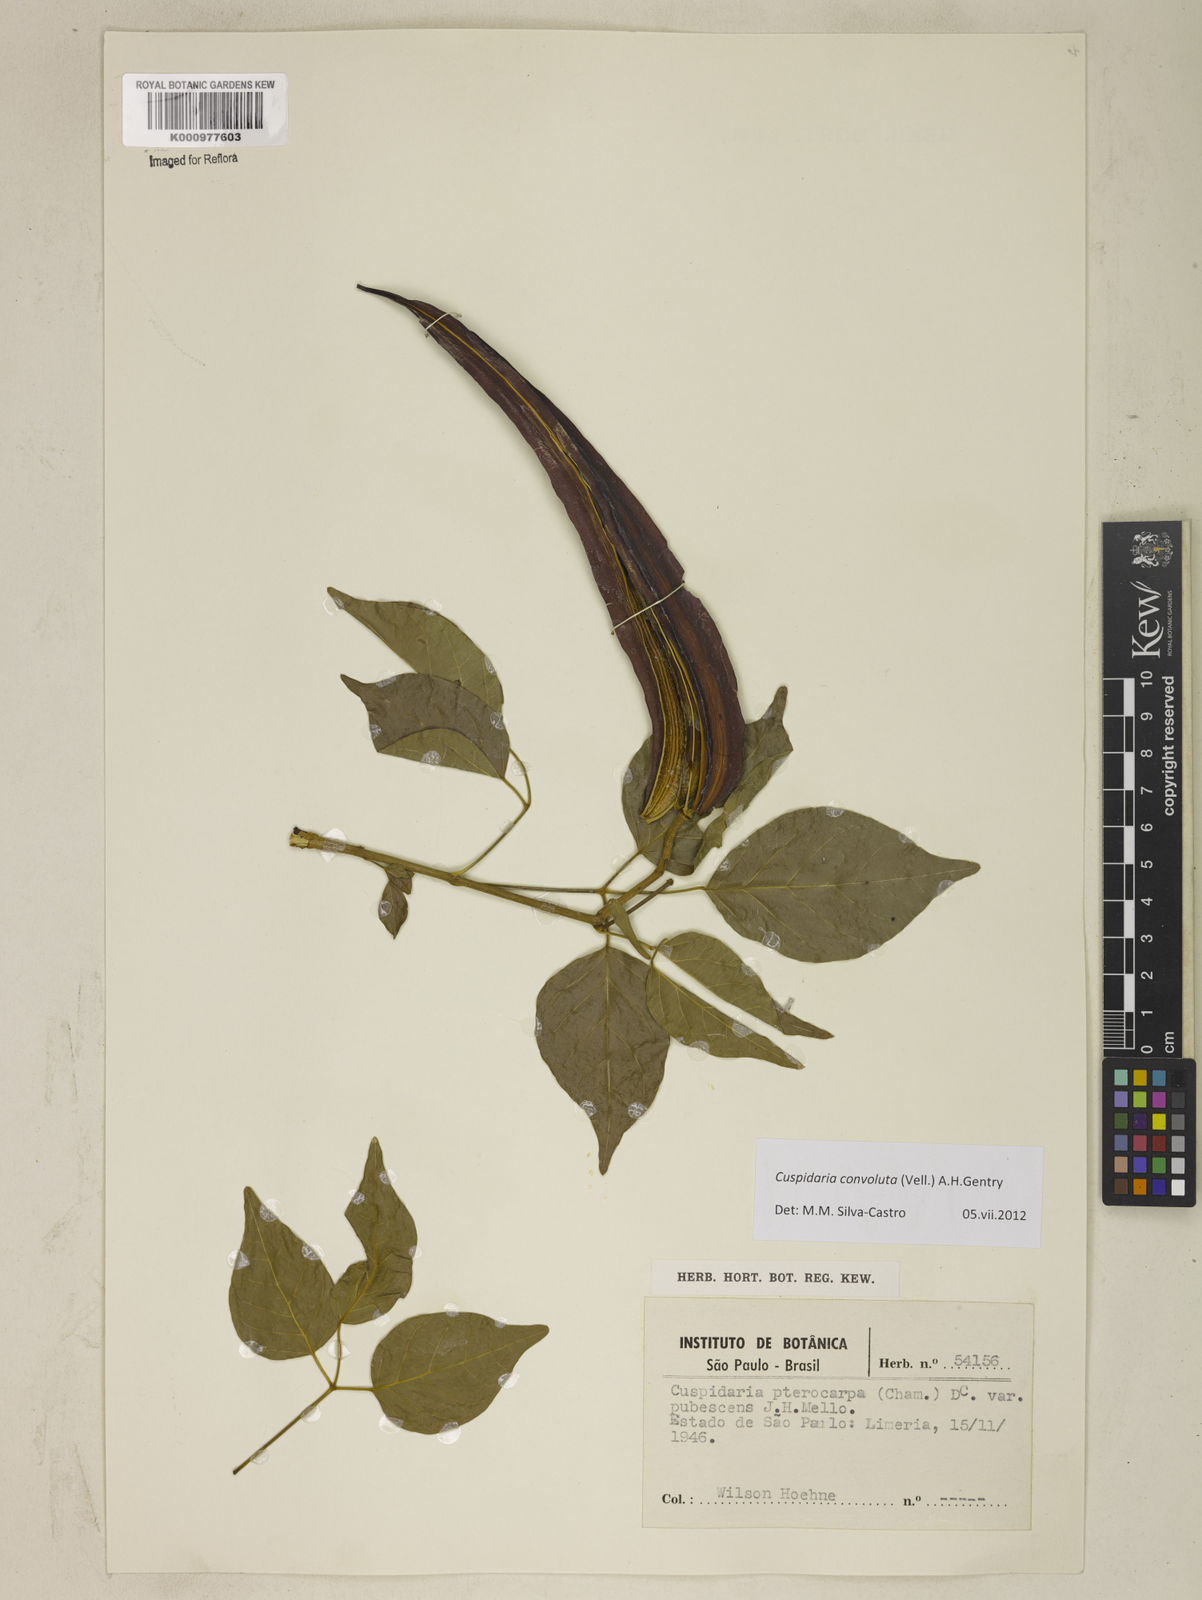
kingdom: Plantae
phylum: Tracheophyta
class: Magnoliopsida
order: Lamiales
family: Bignoniaceae
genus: Cuspidaria
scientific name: Cuspidaria convoluta
